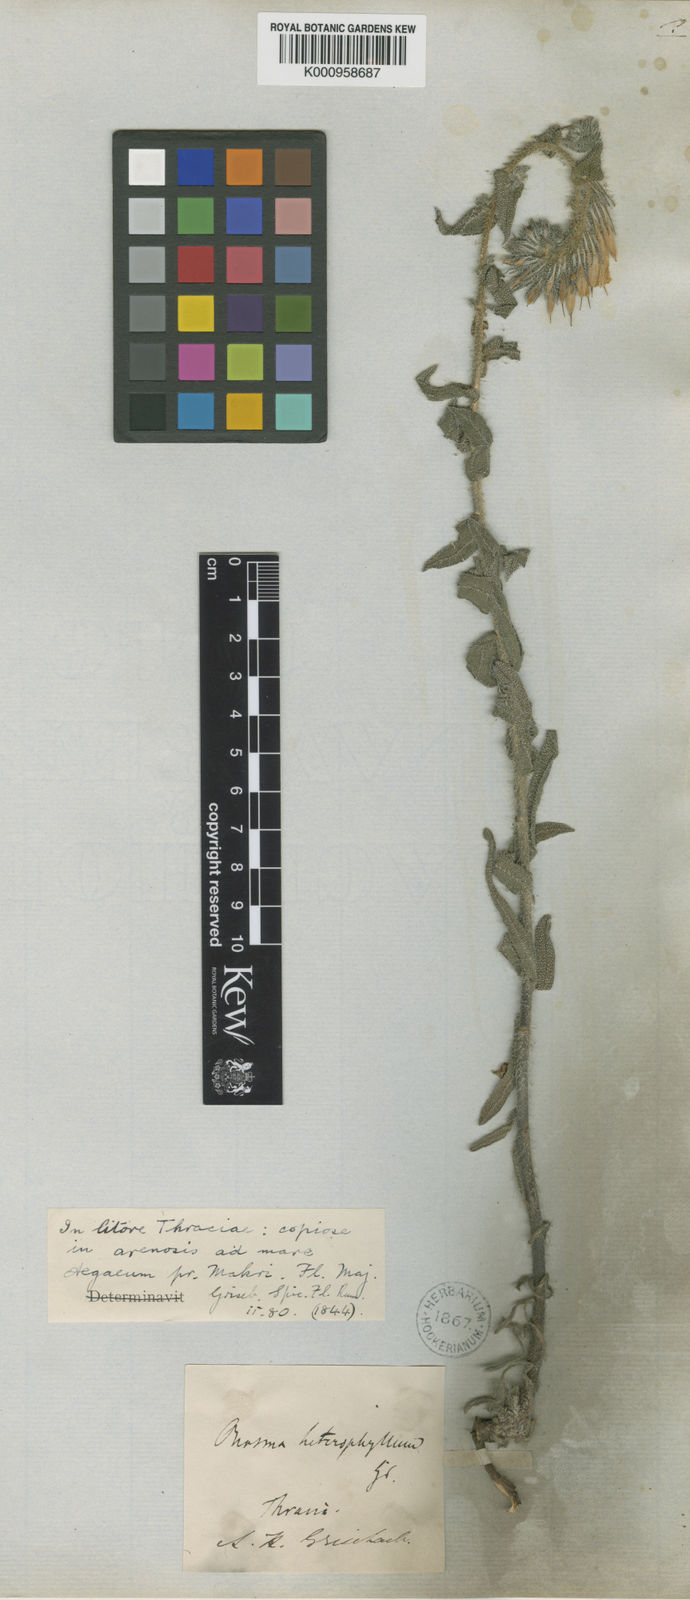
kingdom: Plantae
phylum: Tracheophyta
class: Magnoliopsida
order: Boraginales
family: Boraginaceae
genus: Onosma
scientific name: Onosma heterophylla
